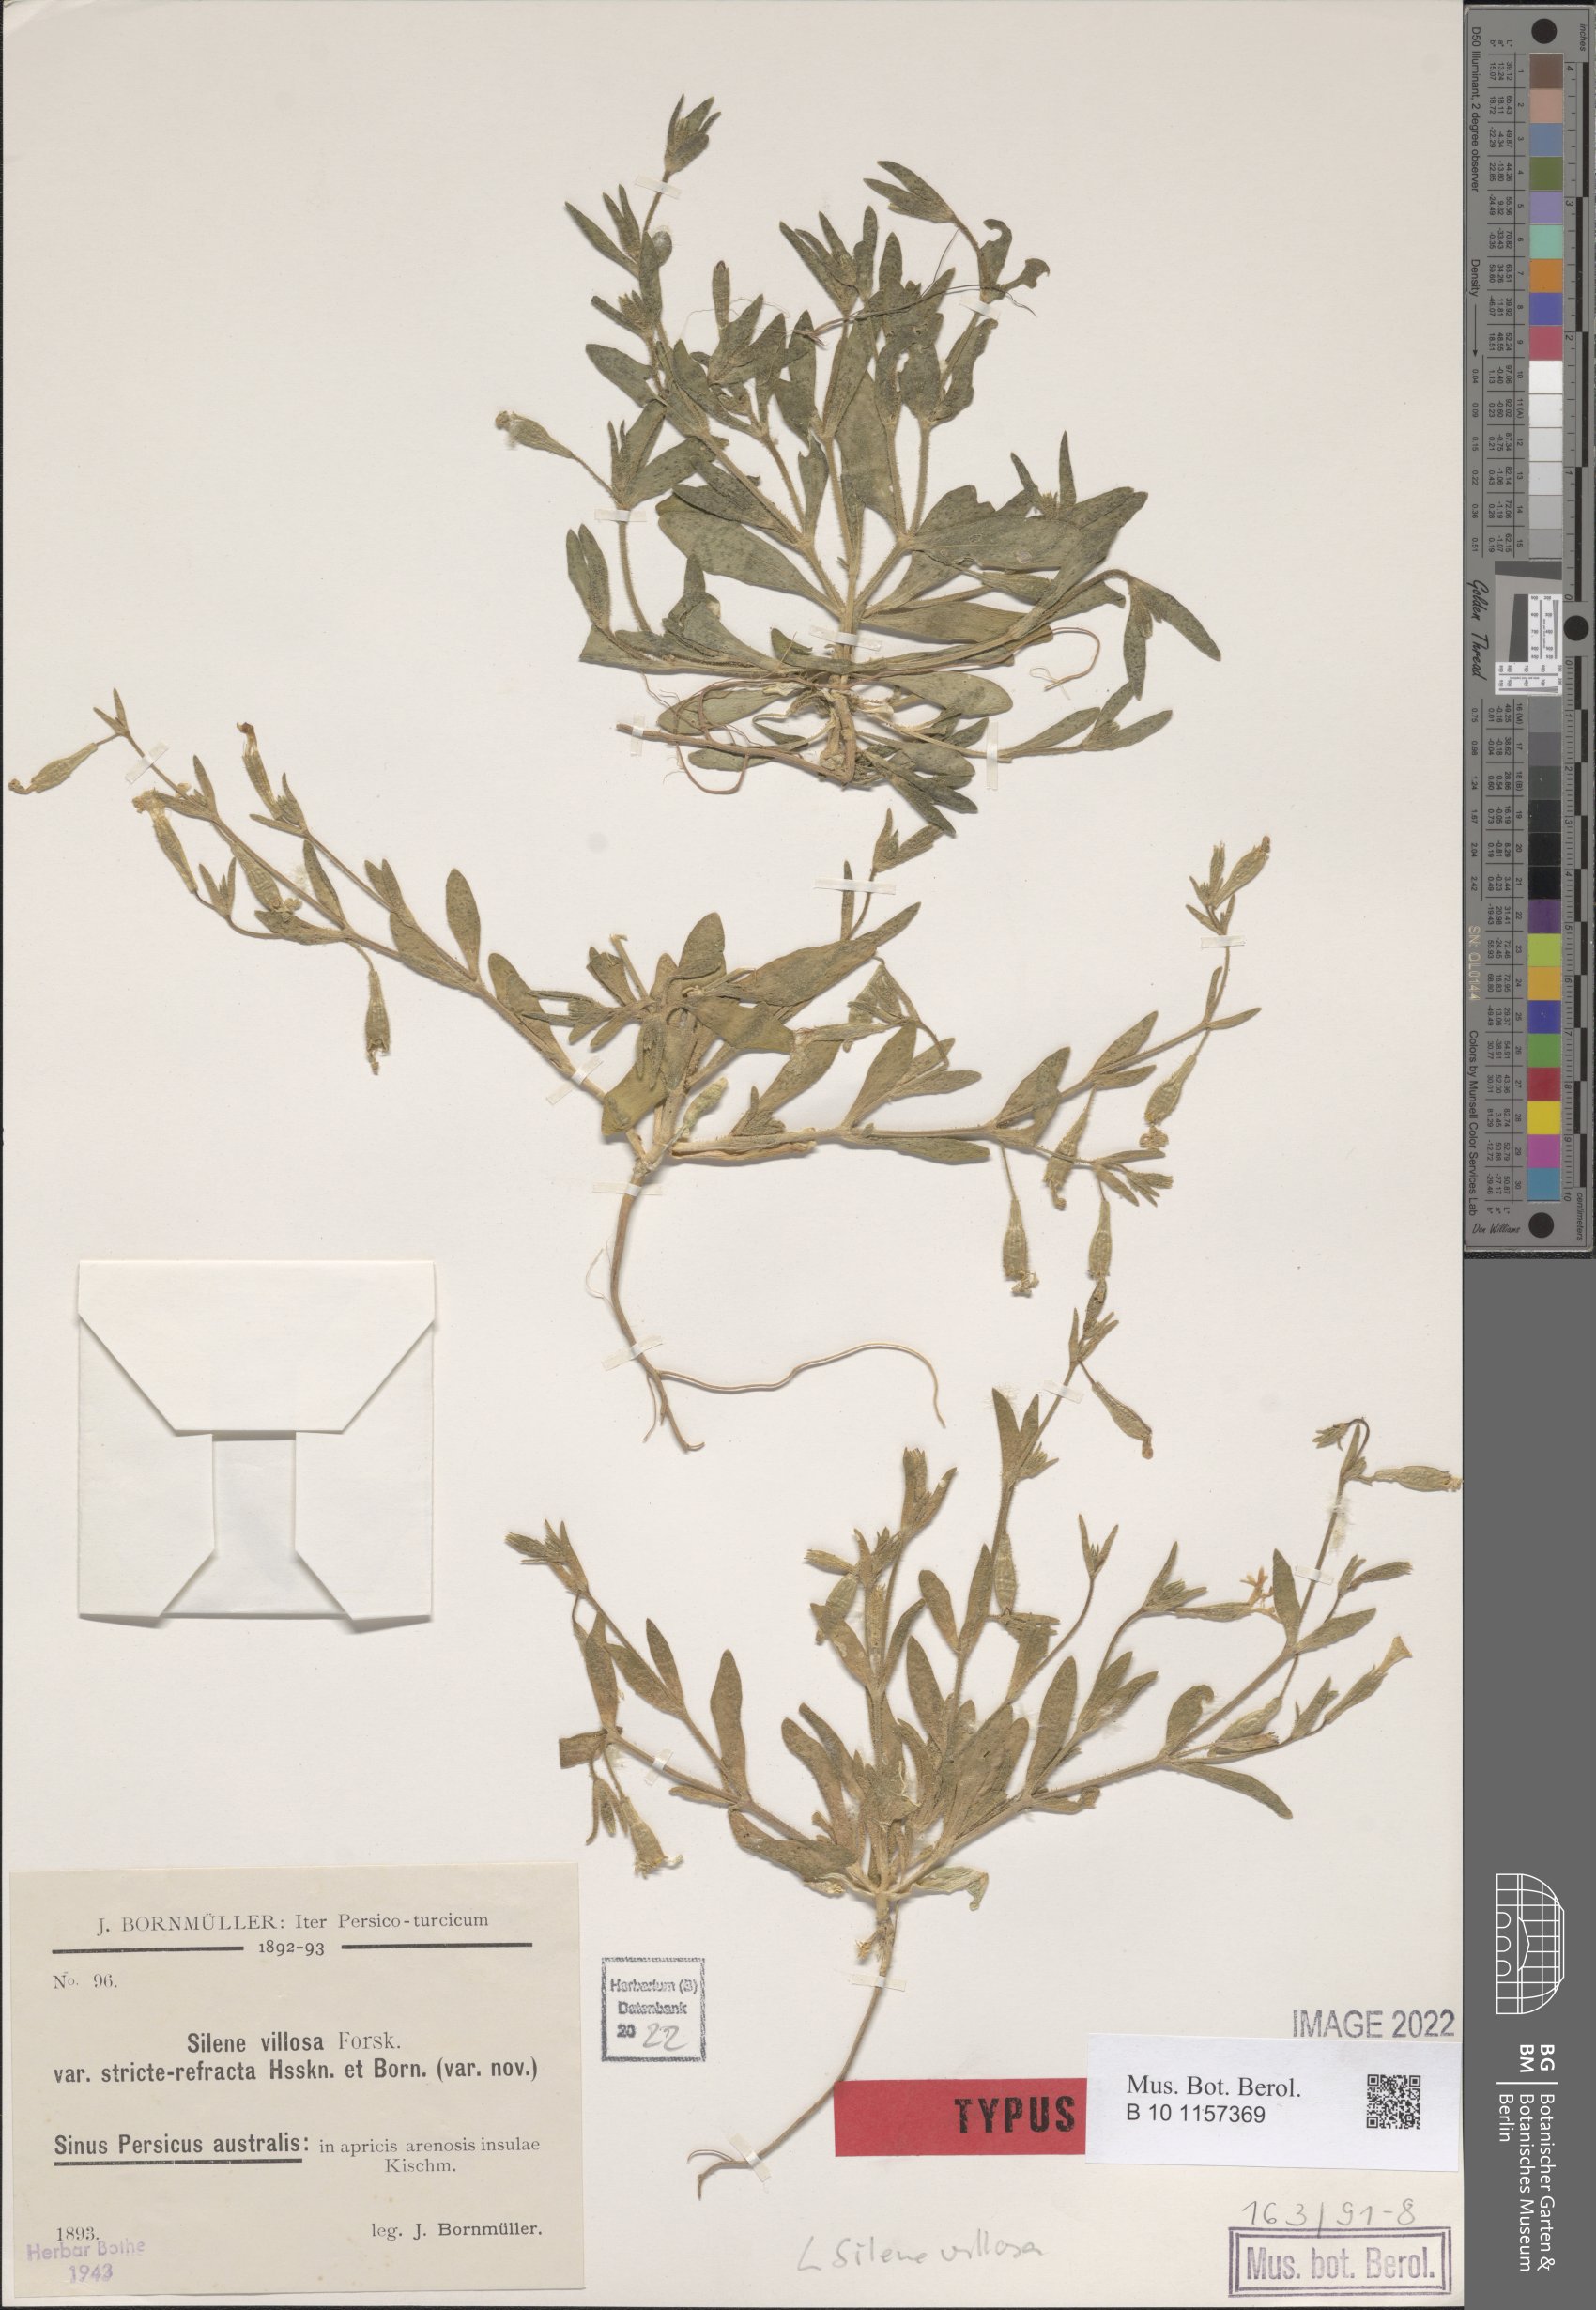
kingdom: Plantae
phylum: Tracheophyta
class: Magnoliopsida
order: Caryophyllales
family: Caryophyllaceae
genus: Silene
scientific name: Silene villosa
